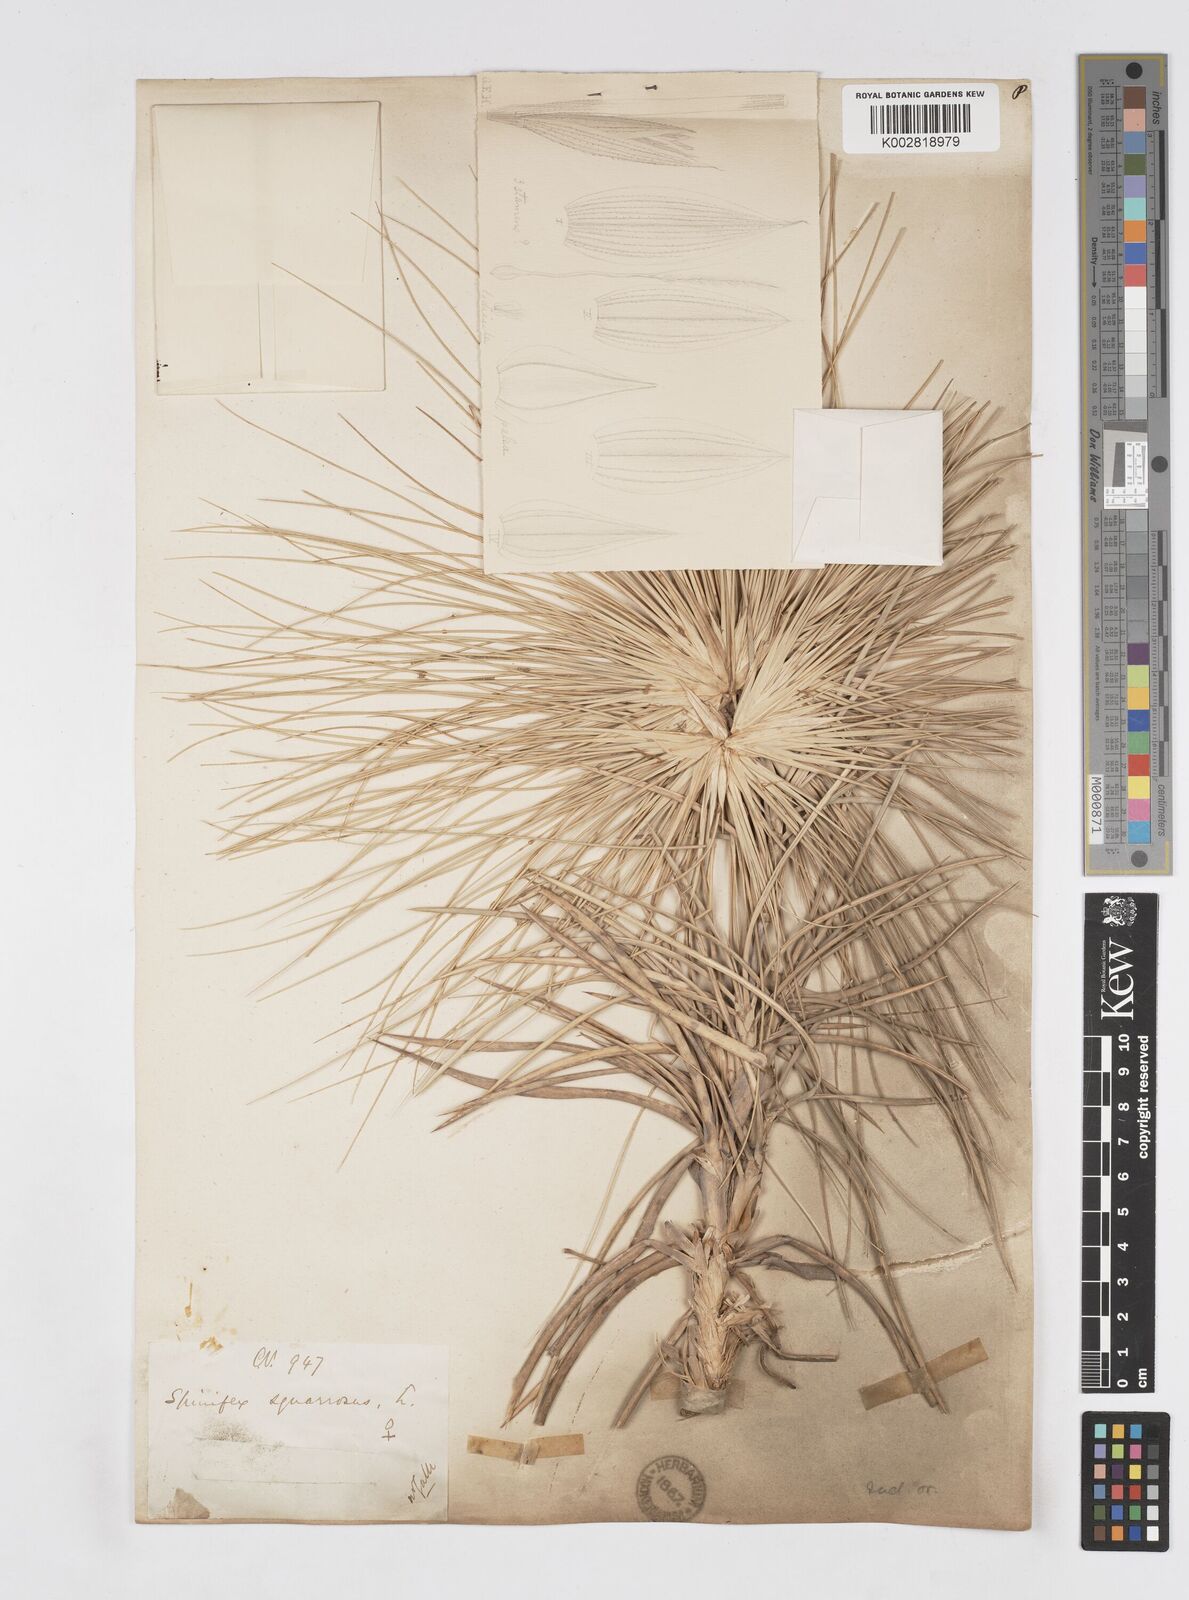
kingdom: Plantae
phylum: Tracheophyta
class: Liliopsida
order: Poales
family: Poaceae
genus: Spinifex
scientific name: Spinifex littoreus
